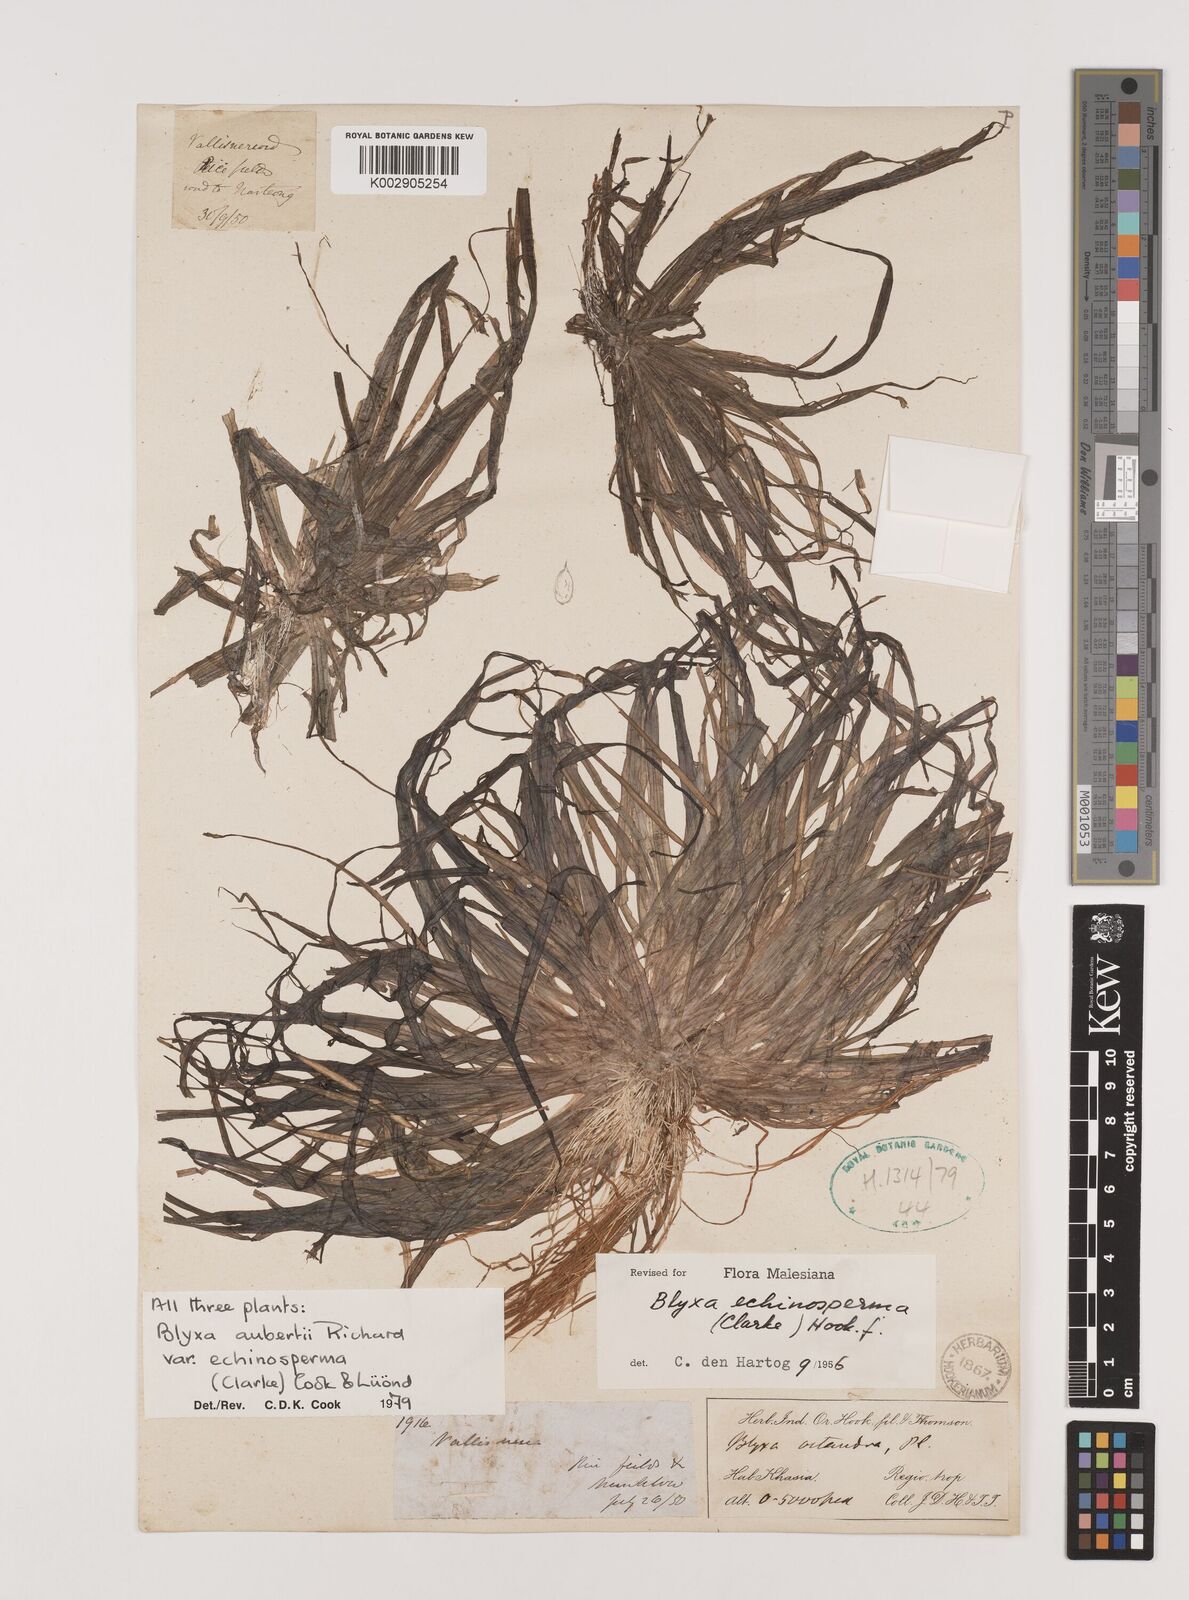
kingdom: Plantae
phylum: Tracheophyta
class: Liliopsida
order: Alismatales
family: Hydrocharitaceae
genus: Blyxa
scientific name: Blyxa echinosperma
